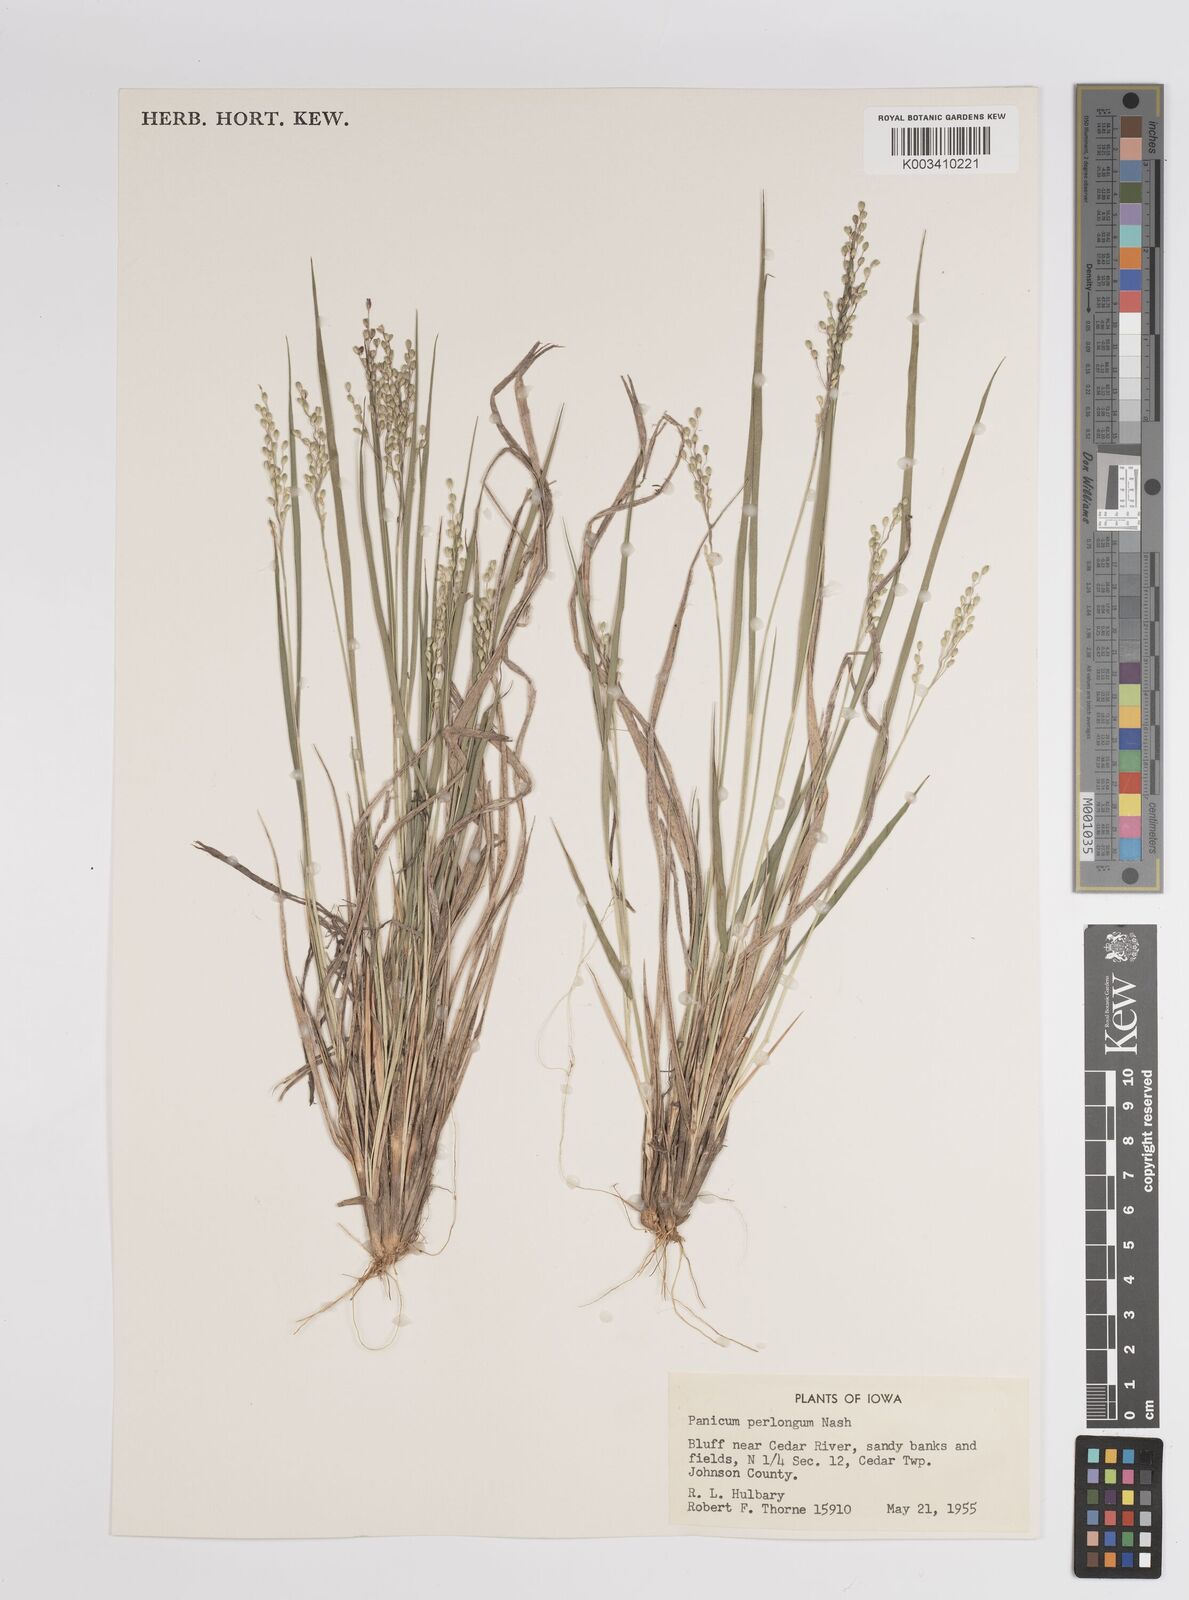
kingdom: Plantae
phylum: Tracheophyta
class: Liliopsida
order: Poales
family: Poaceae
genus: Dichanthelium
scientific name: Dichanthelium linearifolium
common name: Linear-leaved panicgrass
